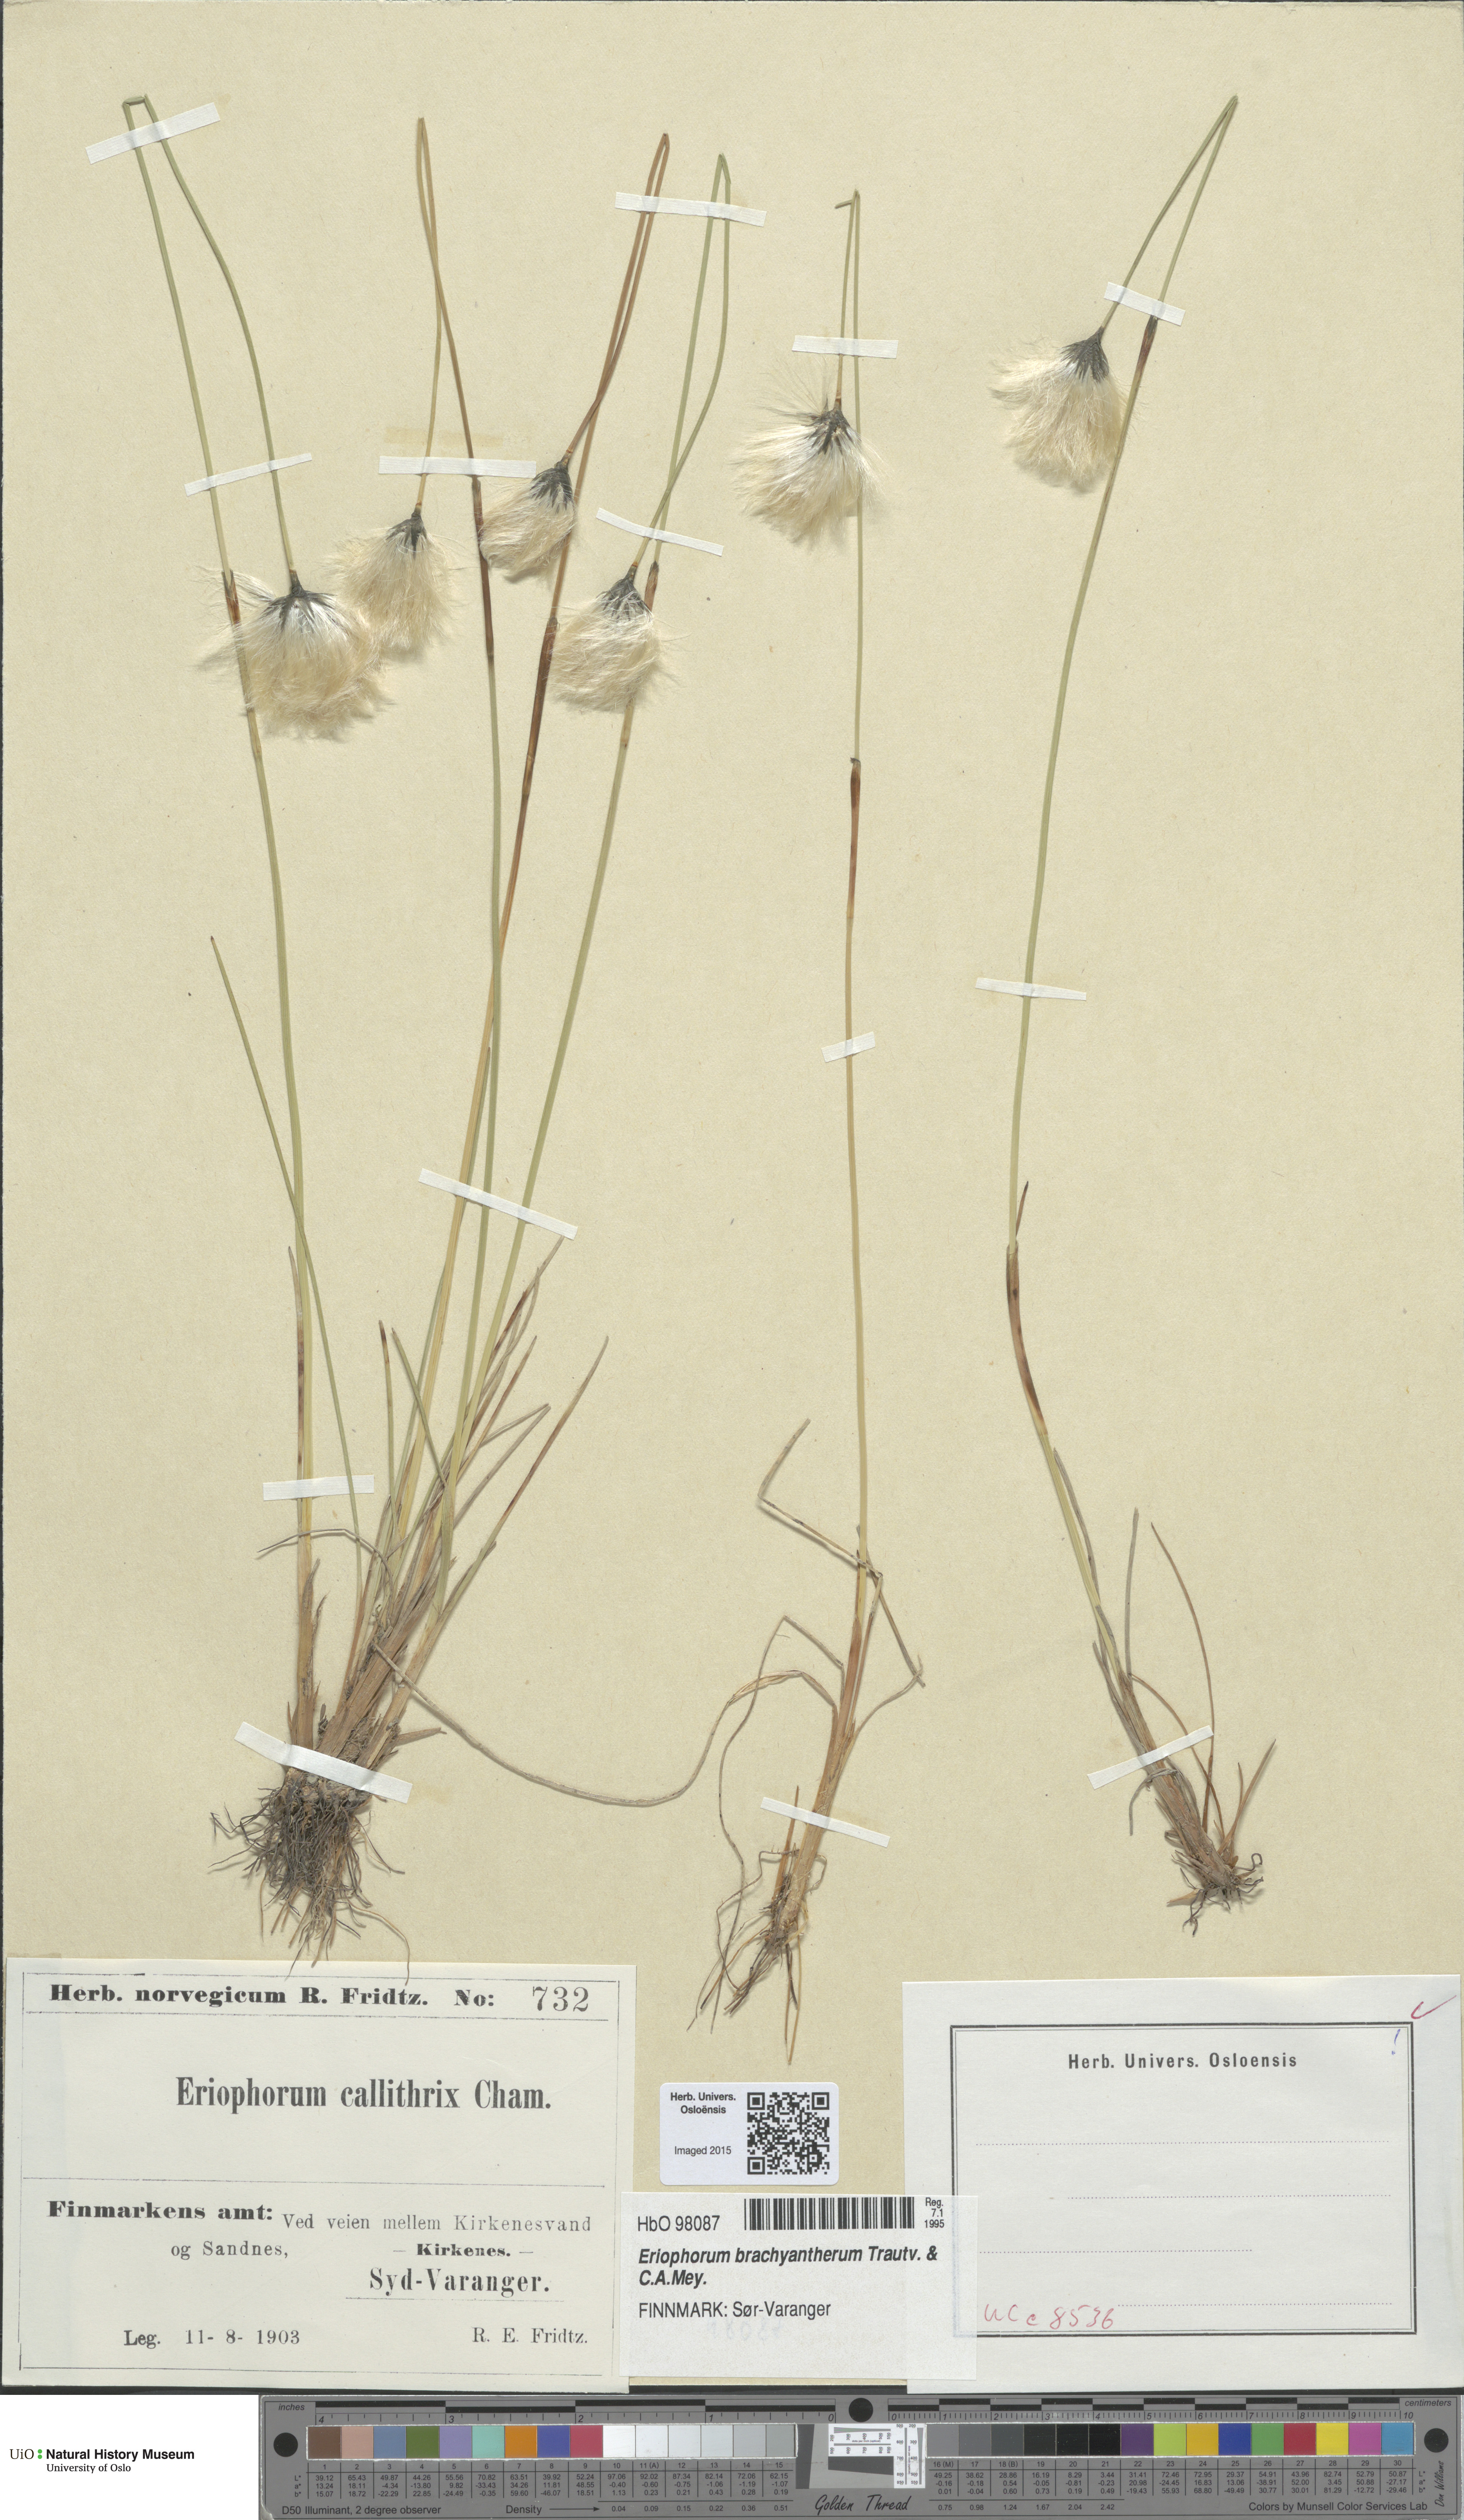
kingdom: Plantae
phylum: Tracheophyta
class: Liliopsida
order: Poales
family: Cyperaceae
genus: Eriophorum
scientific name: Eriophorum brachyantherum
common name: Closed-sheathed cottongrass
